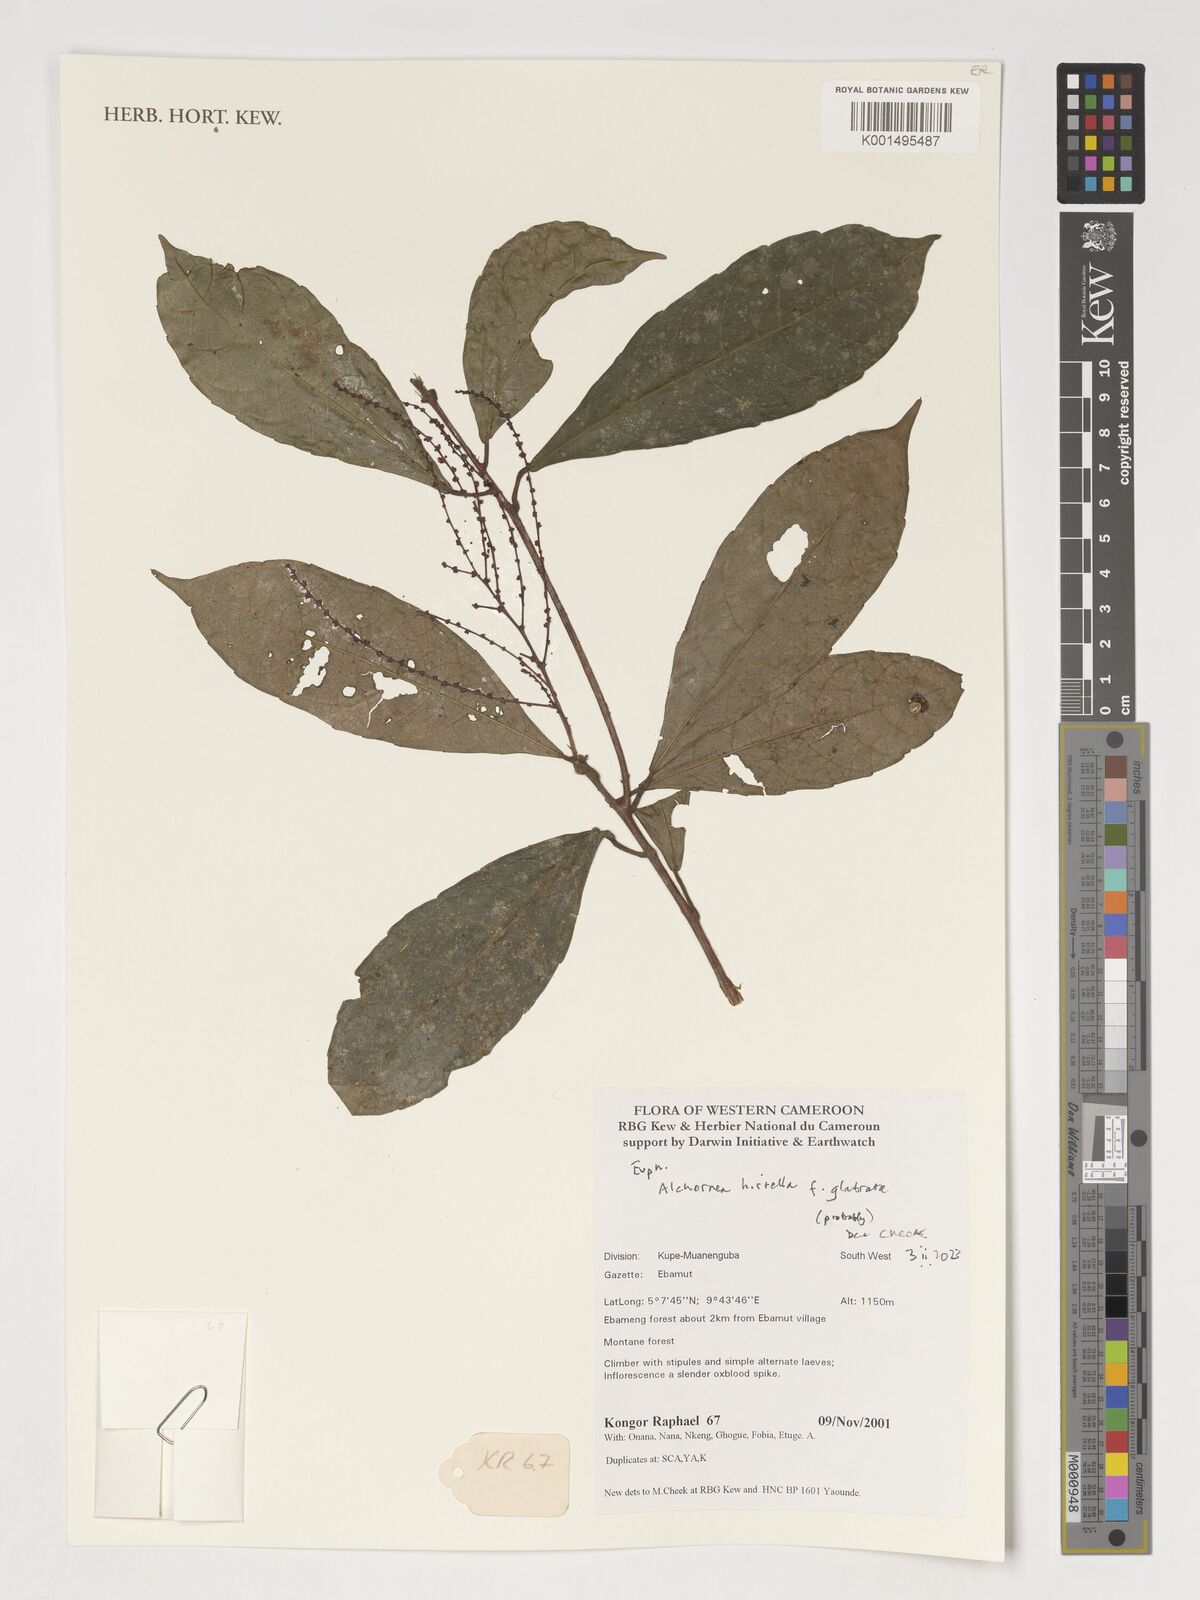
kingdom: Plantae
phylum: Tracheophyta
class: Magnoliopsida
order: Malpighiales
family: Euphorbiaceae
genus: Alchornea
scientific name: Alchornea hirtella
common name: Forest bead-string
